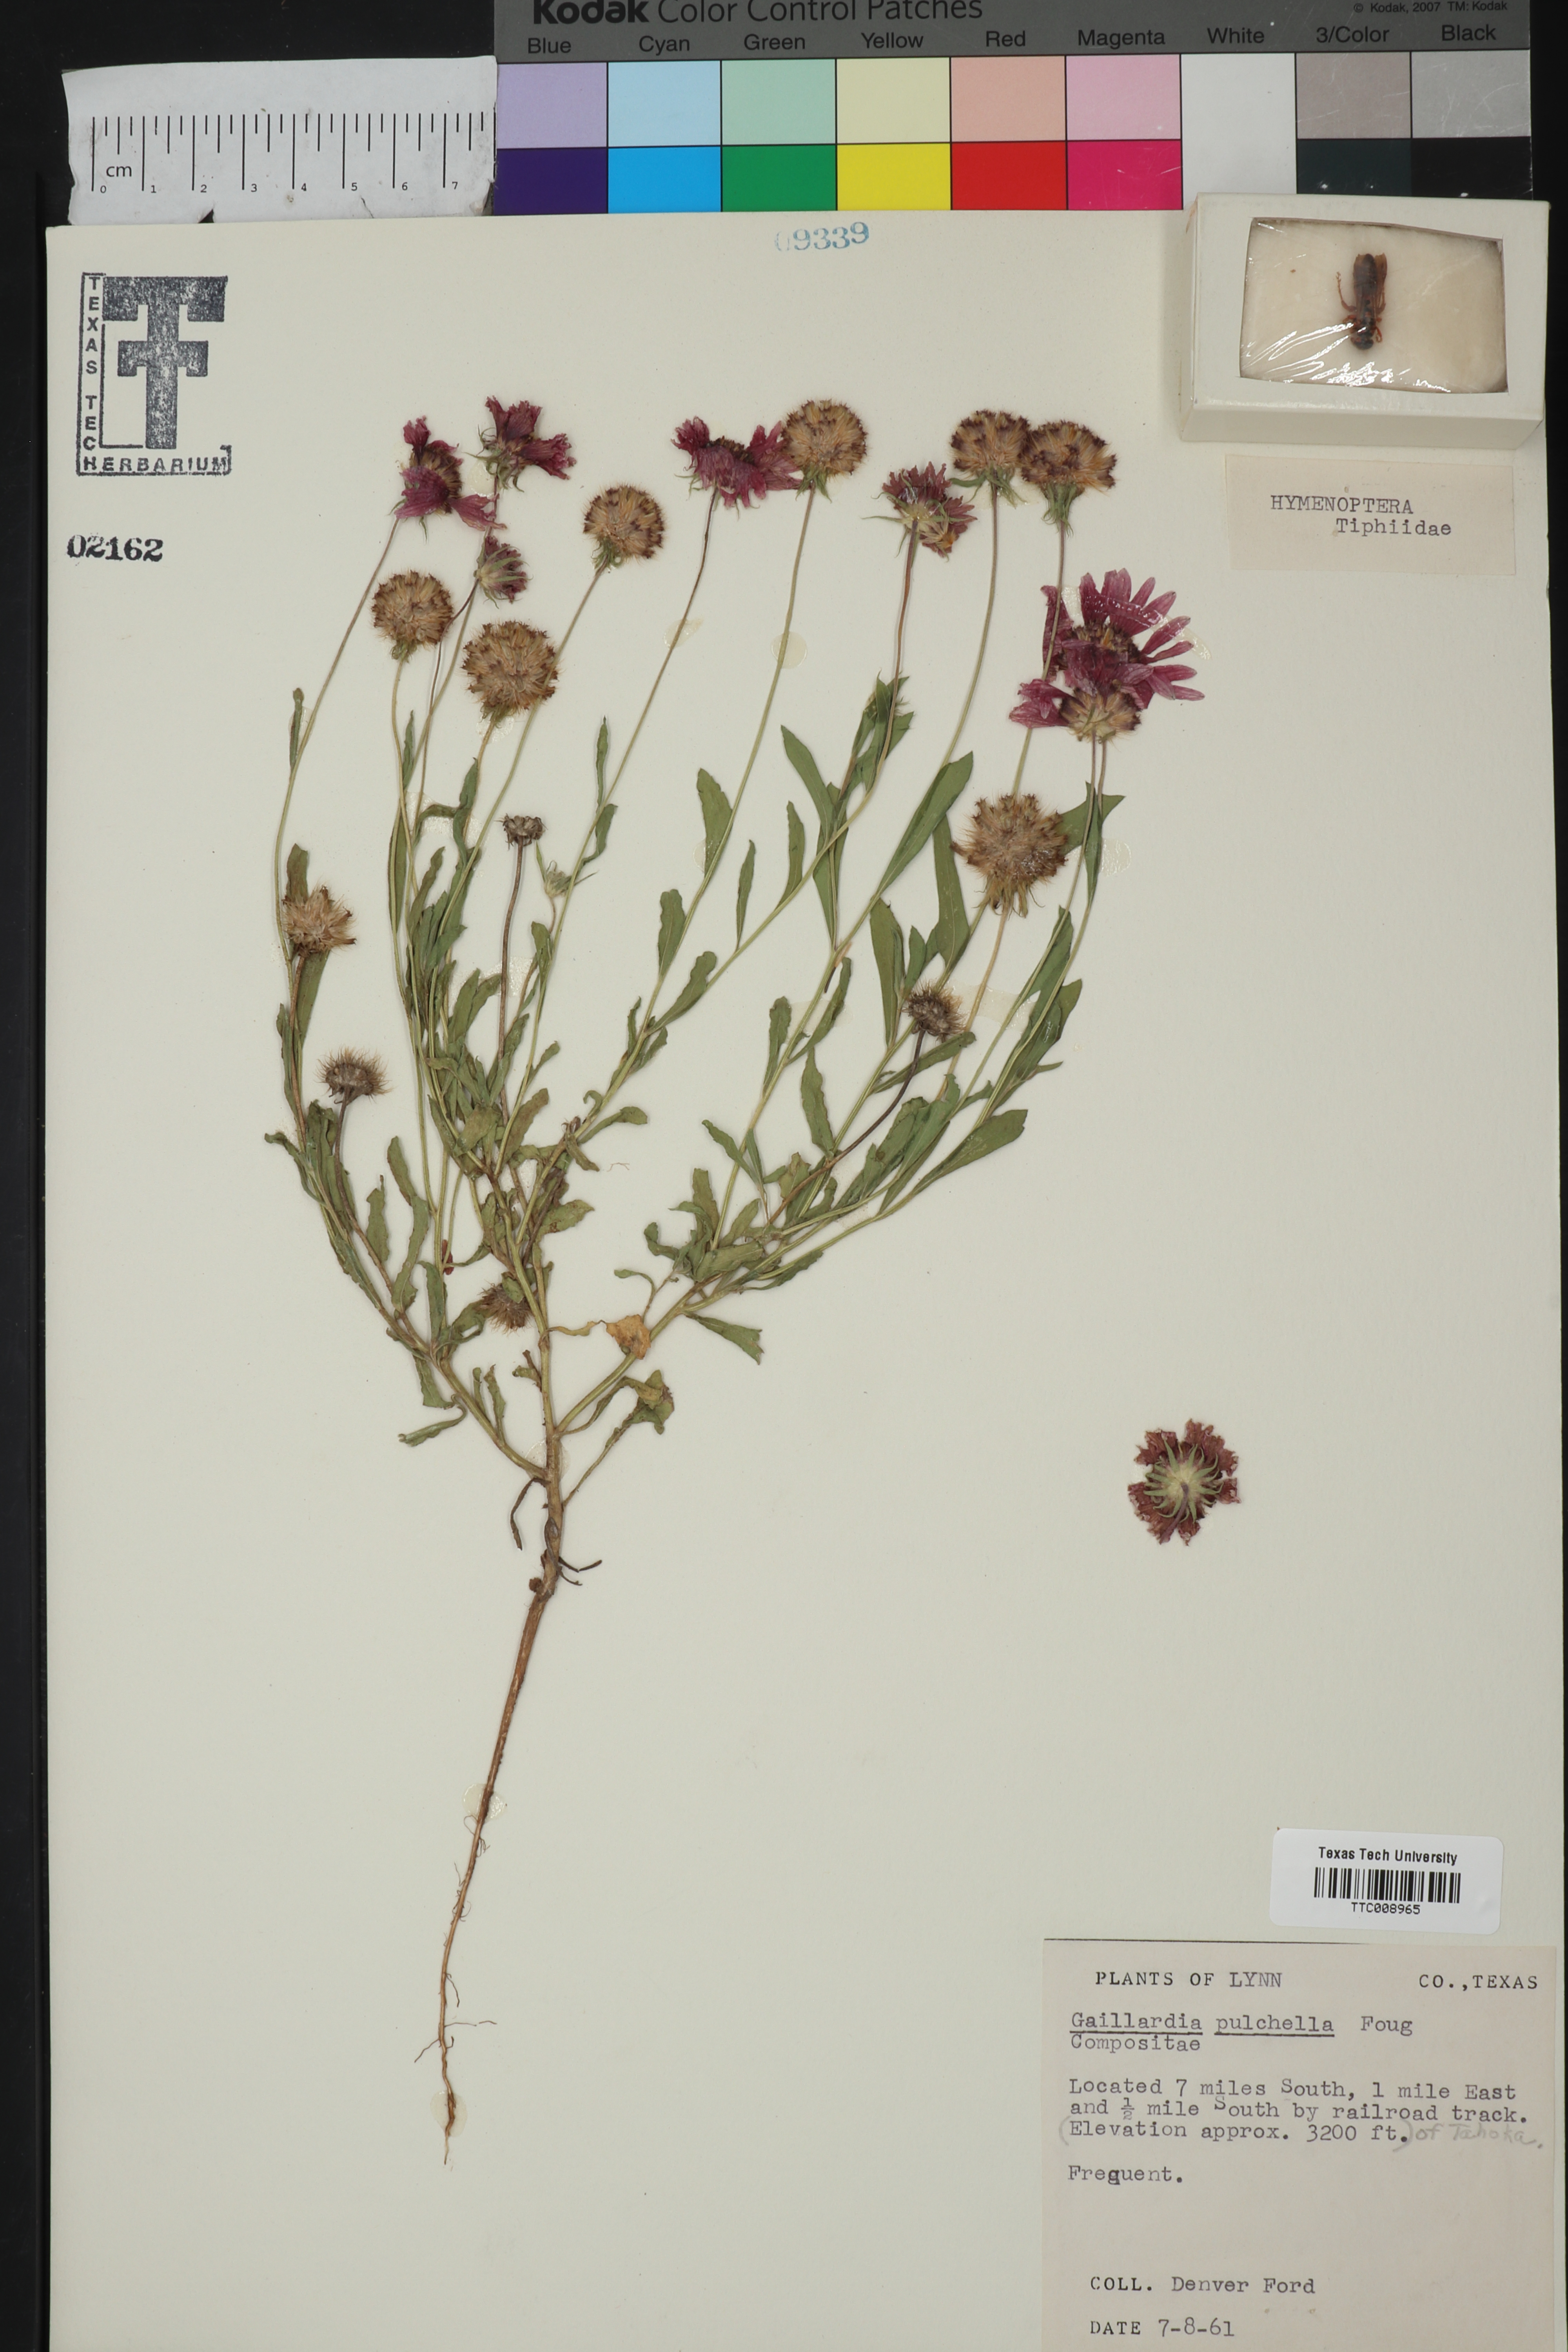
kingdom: Plantae
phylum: Tracheophyta
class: Magnoliopsida
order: Asterales
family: Asteraceae
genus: Gaillardia
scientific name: Gaillardia pulchella
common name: Firewheel
